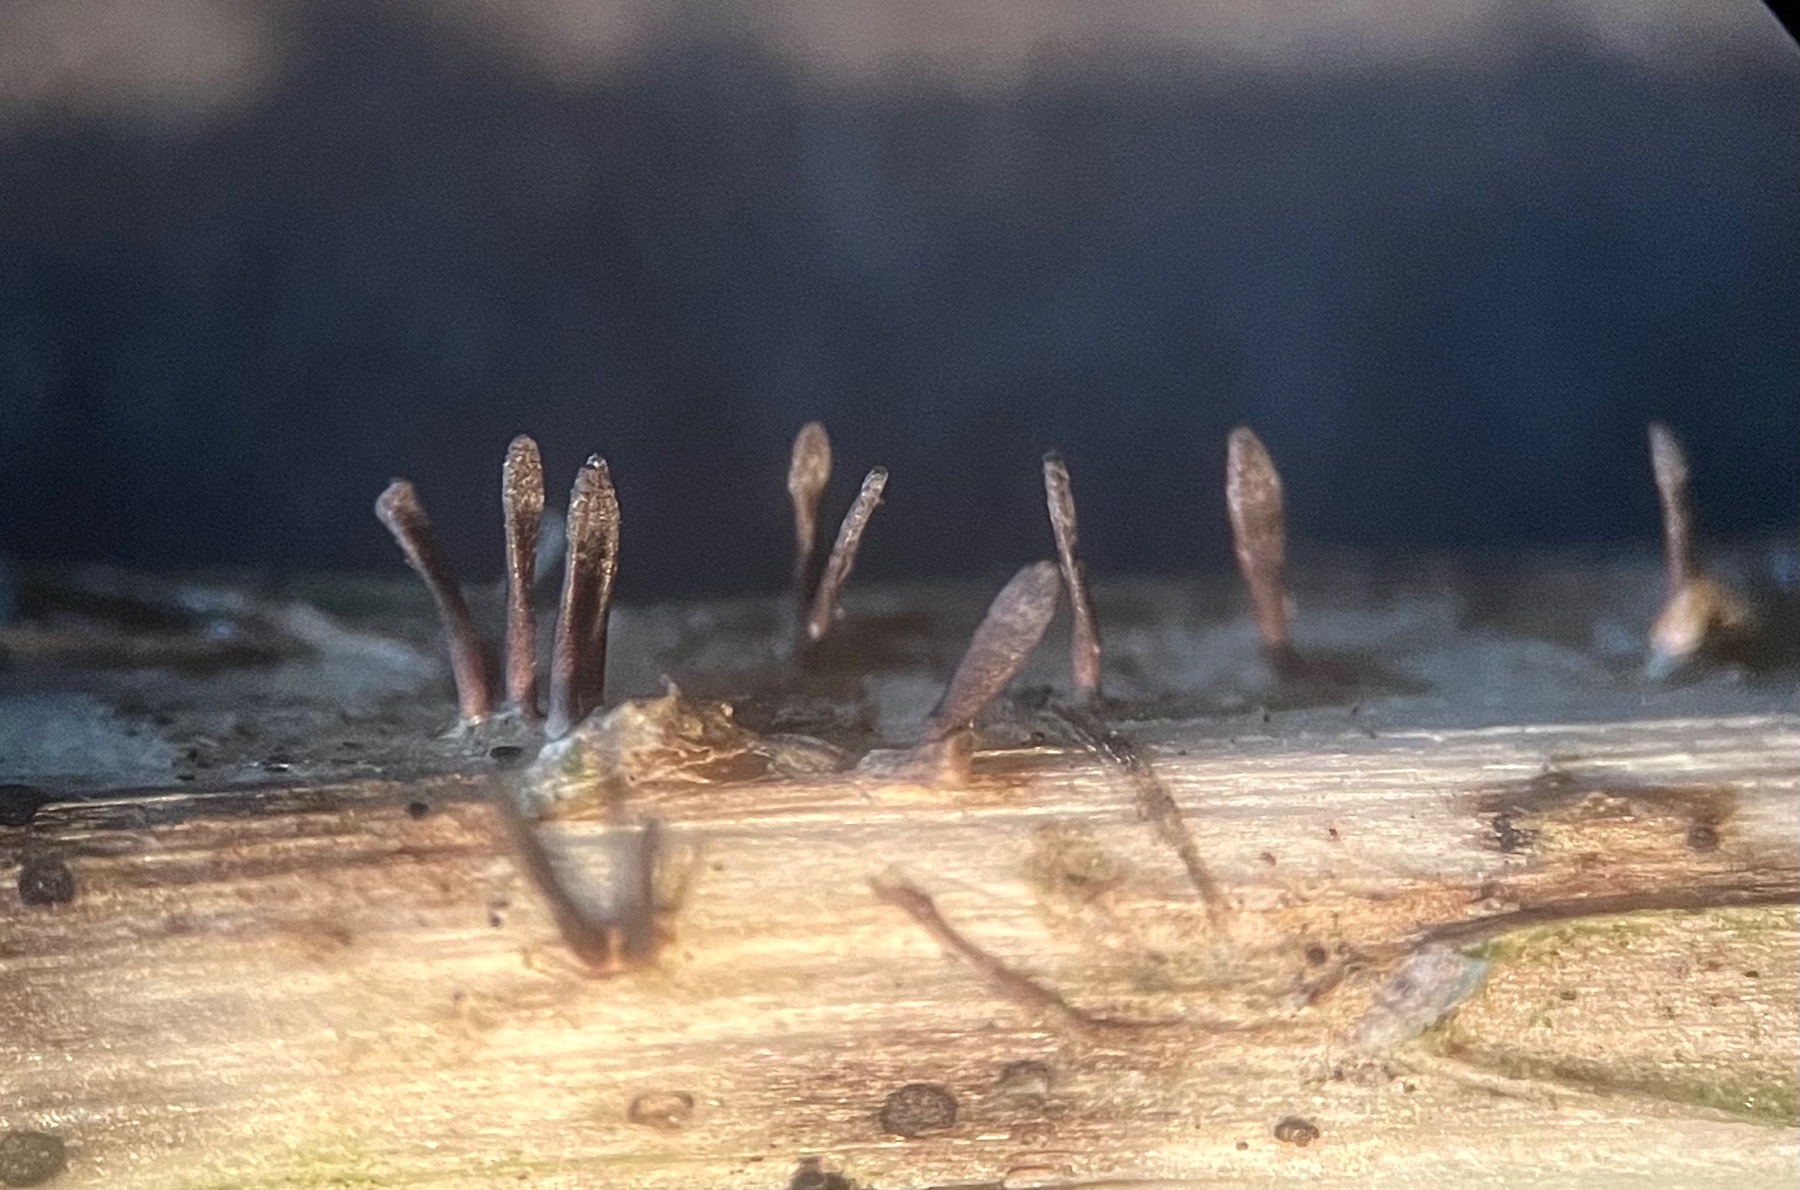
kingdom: Fungi
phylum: Ascomycota
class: Dothideomycetes
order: Acrospermales
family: Acrospermaceae
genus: Acrospermum
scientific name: Acrospermum compressum
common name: nælde-stængeltunge
